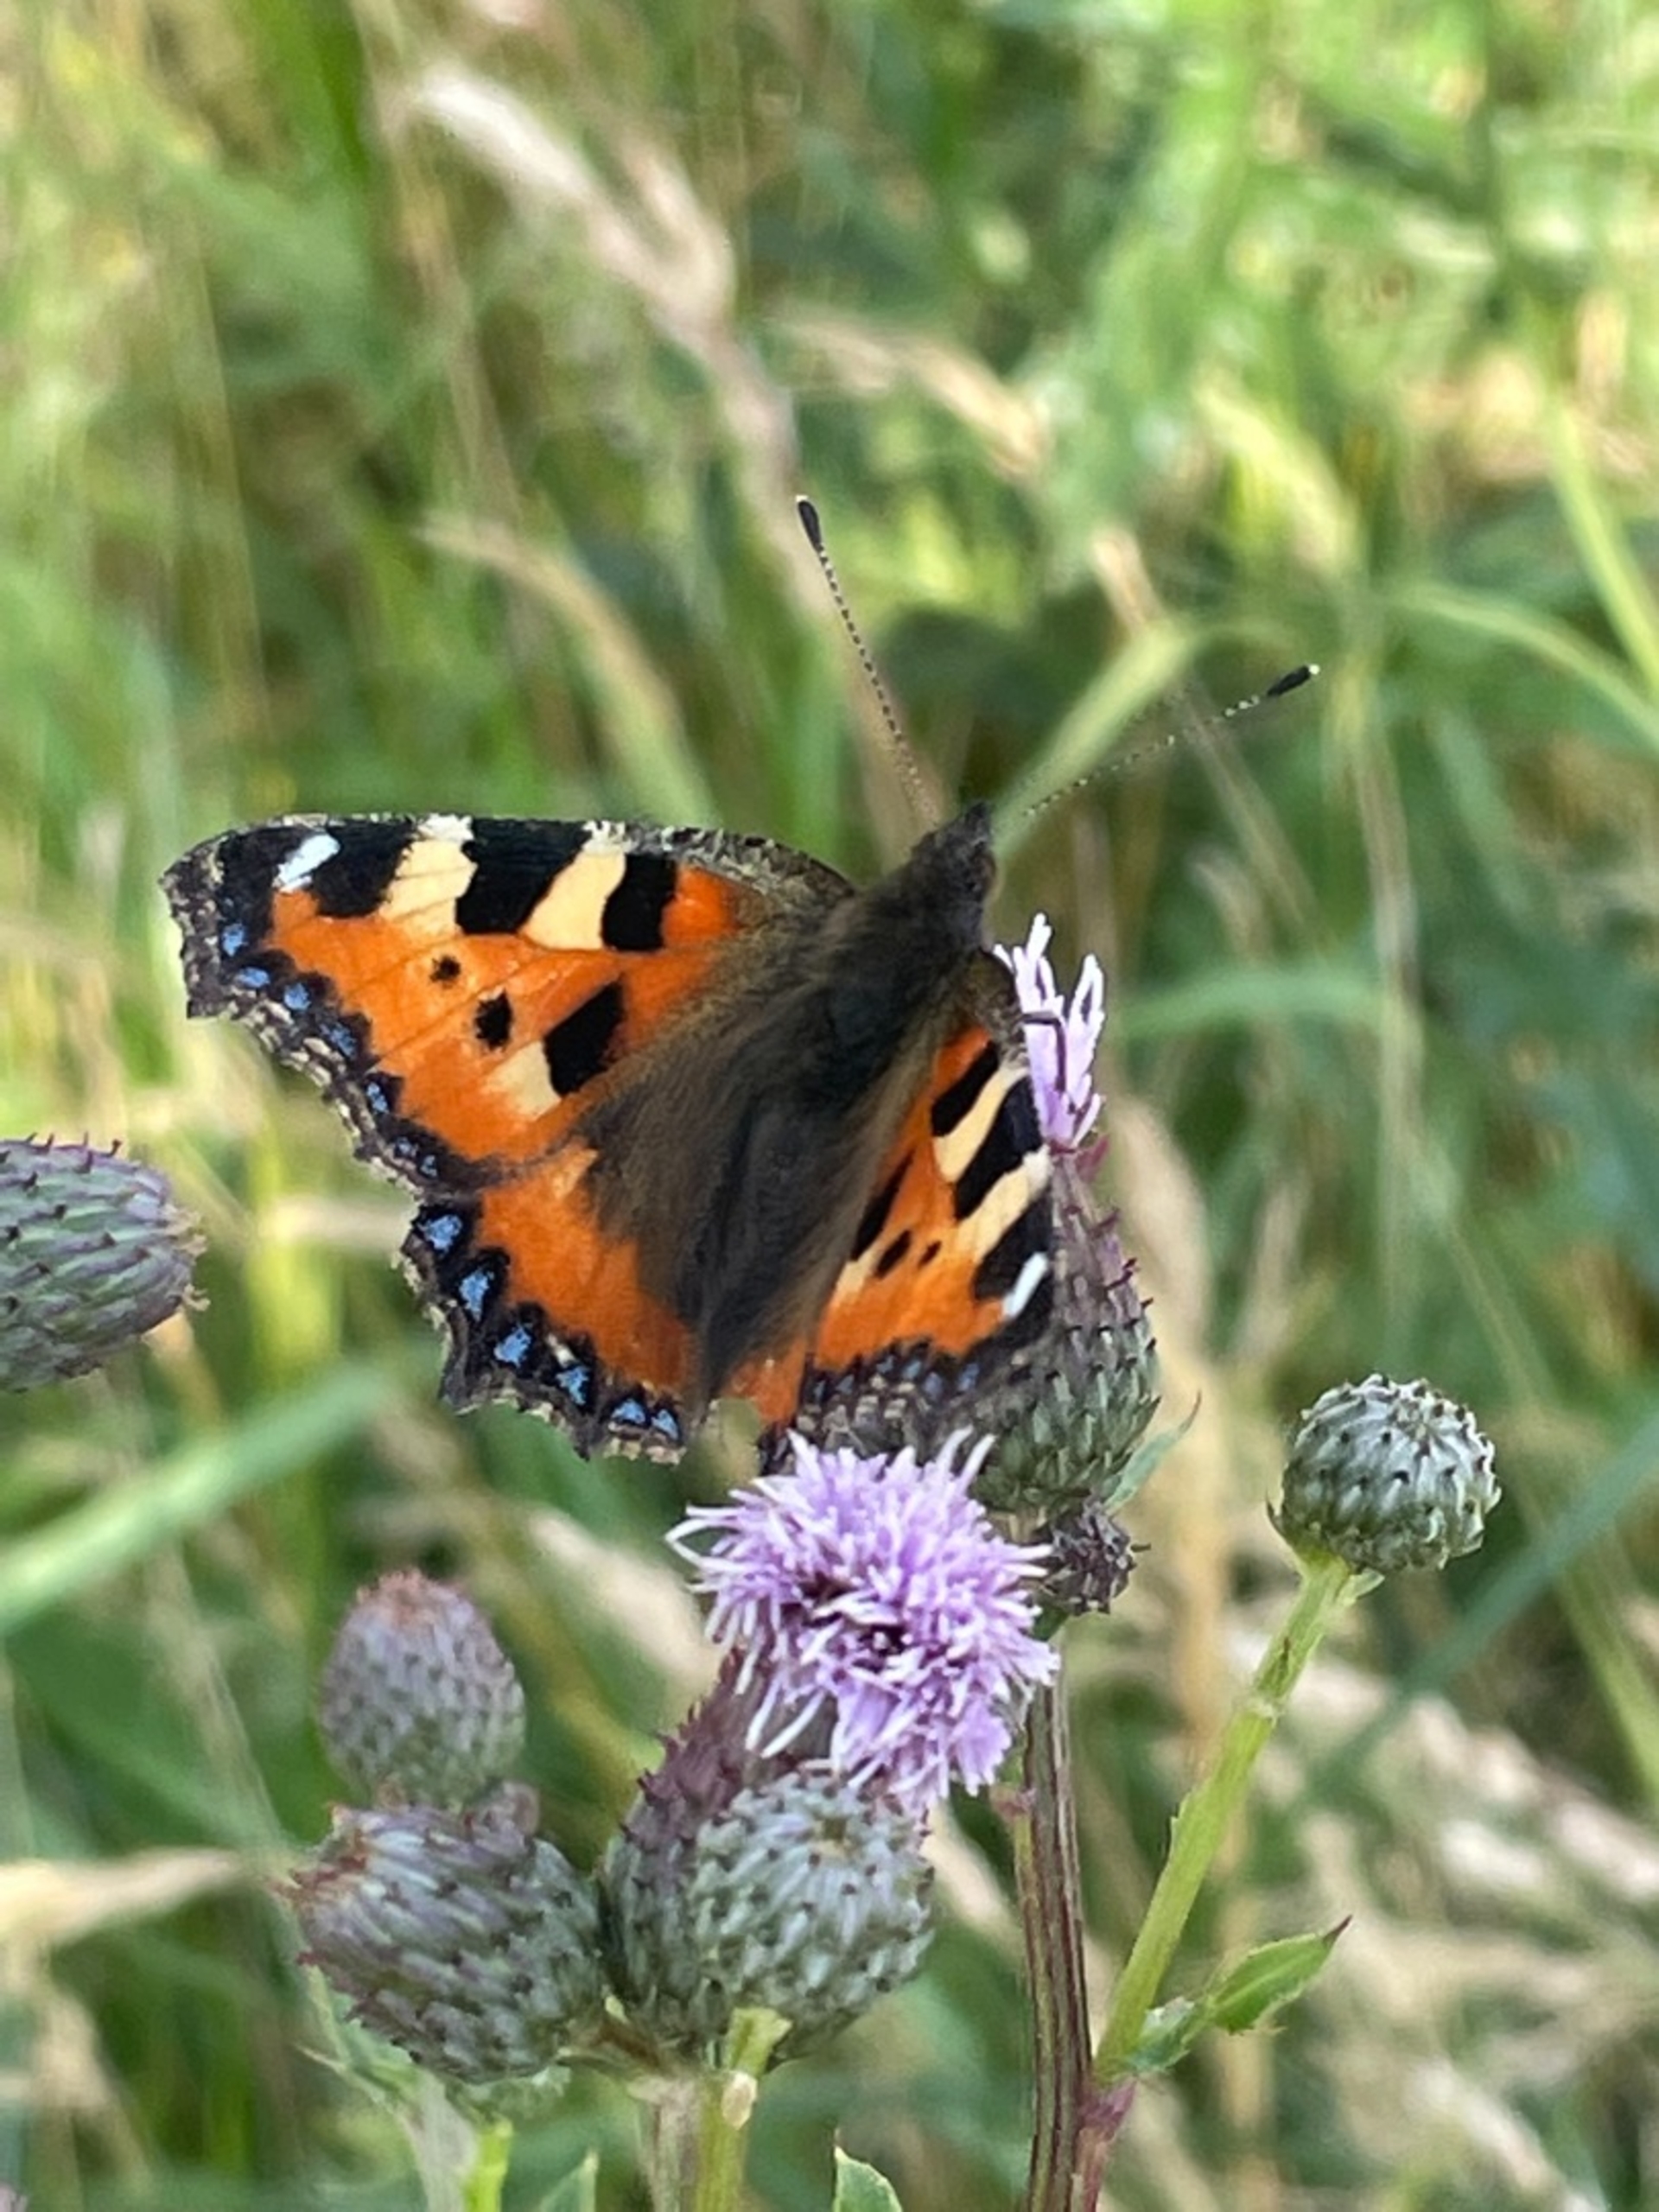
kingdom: Animalia
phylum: Arthropoda
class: Insecta
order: Lepidoptera
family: Nymphalidae
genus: Aglais
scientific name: Aglais urticae
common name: Nældens takvinge
